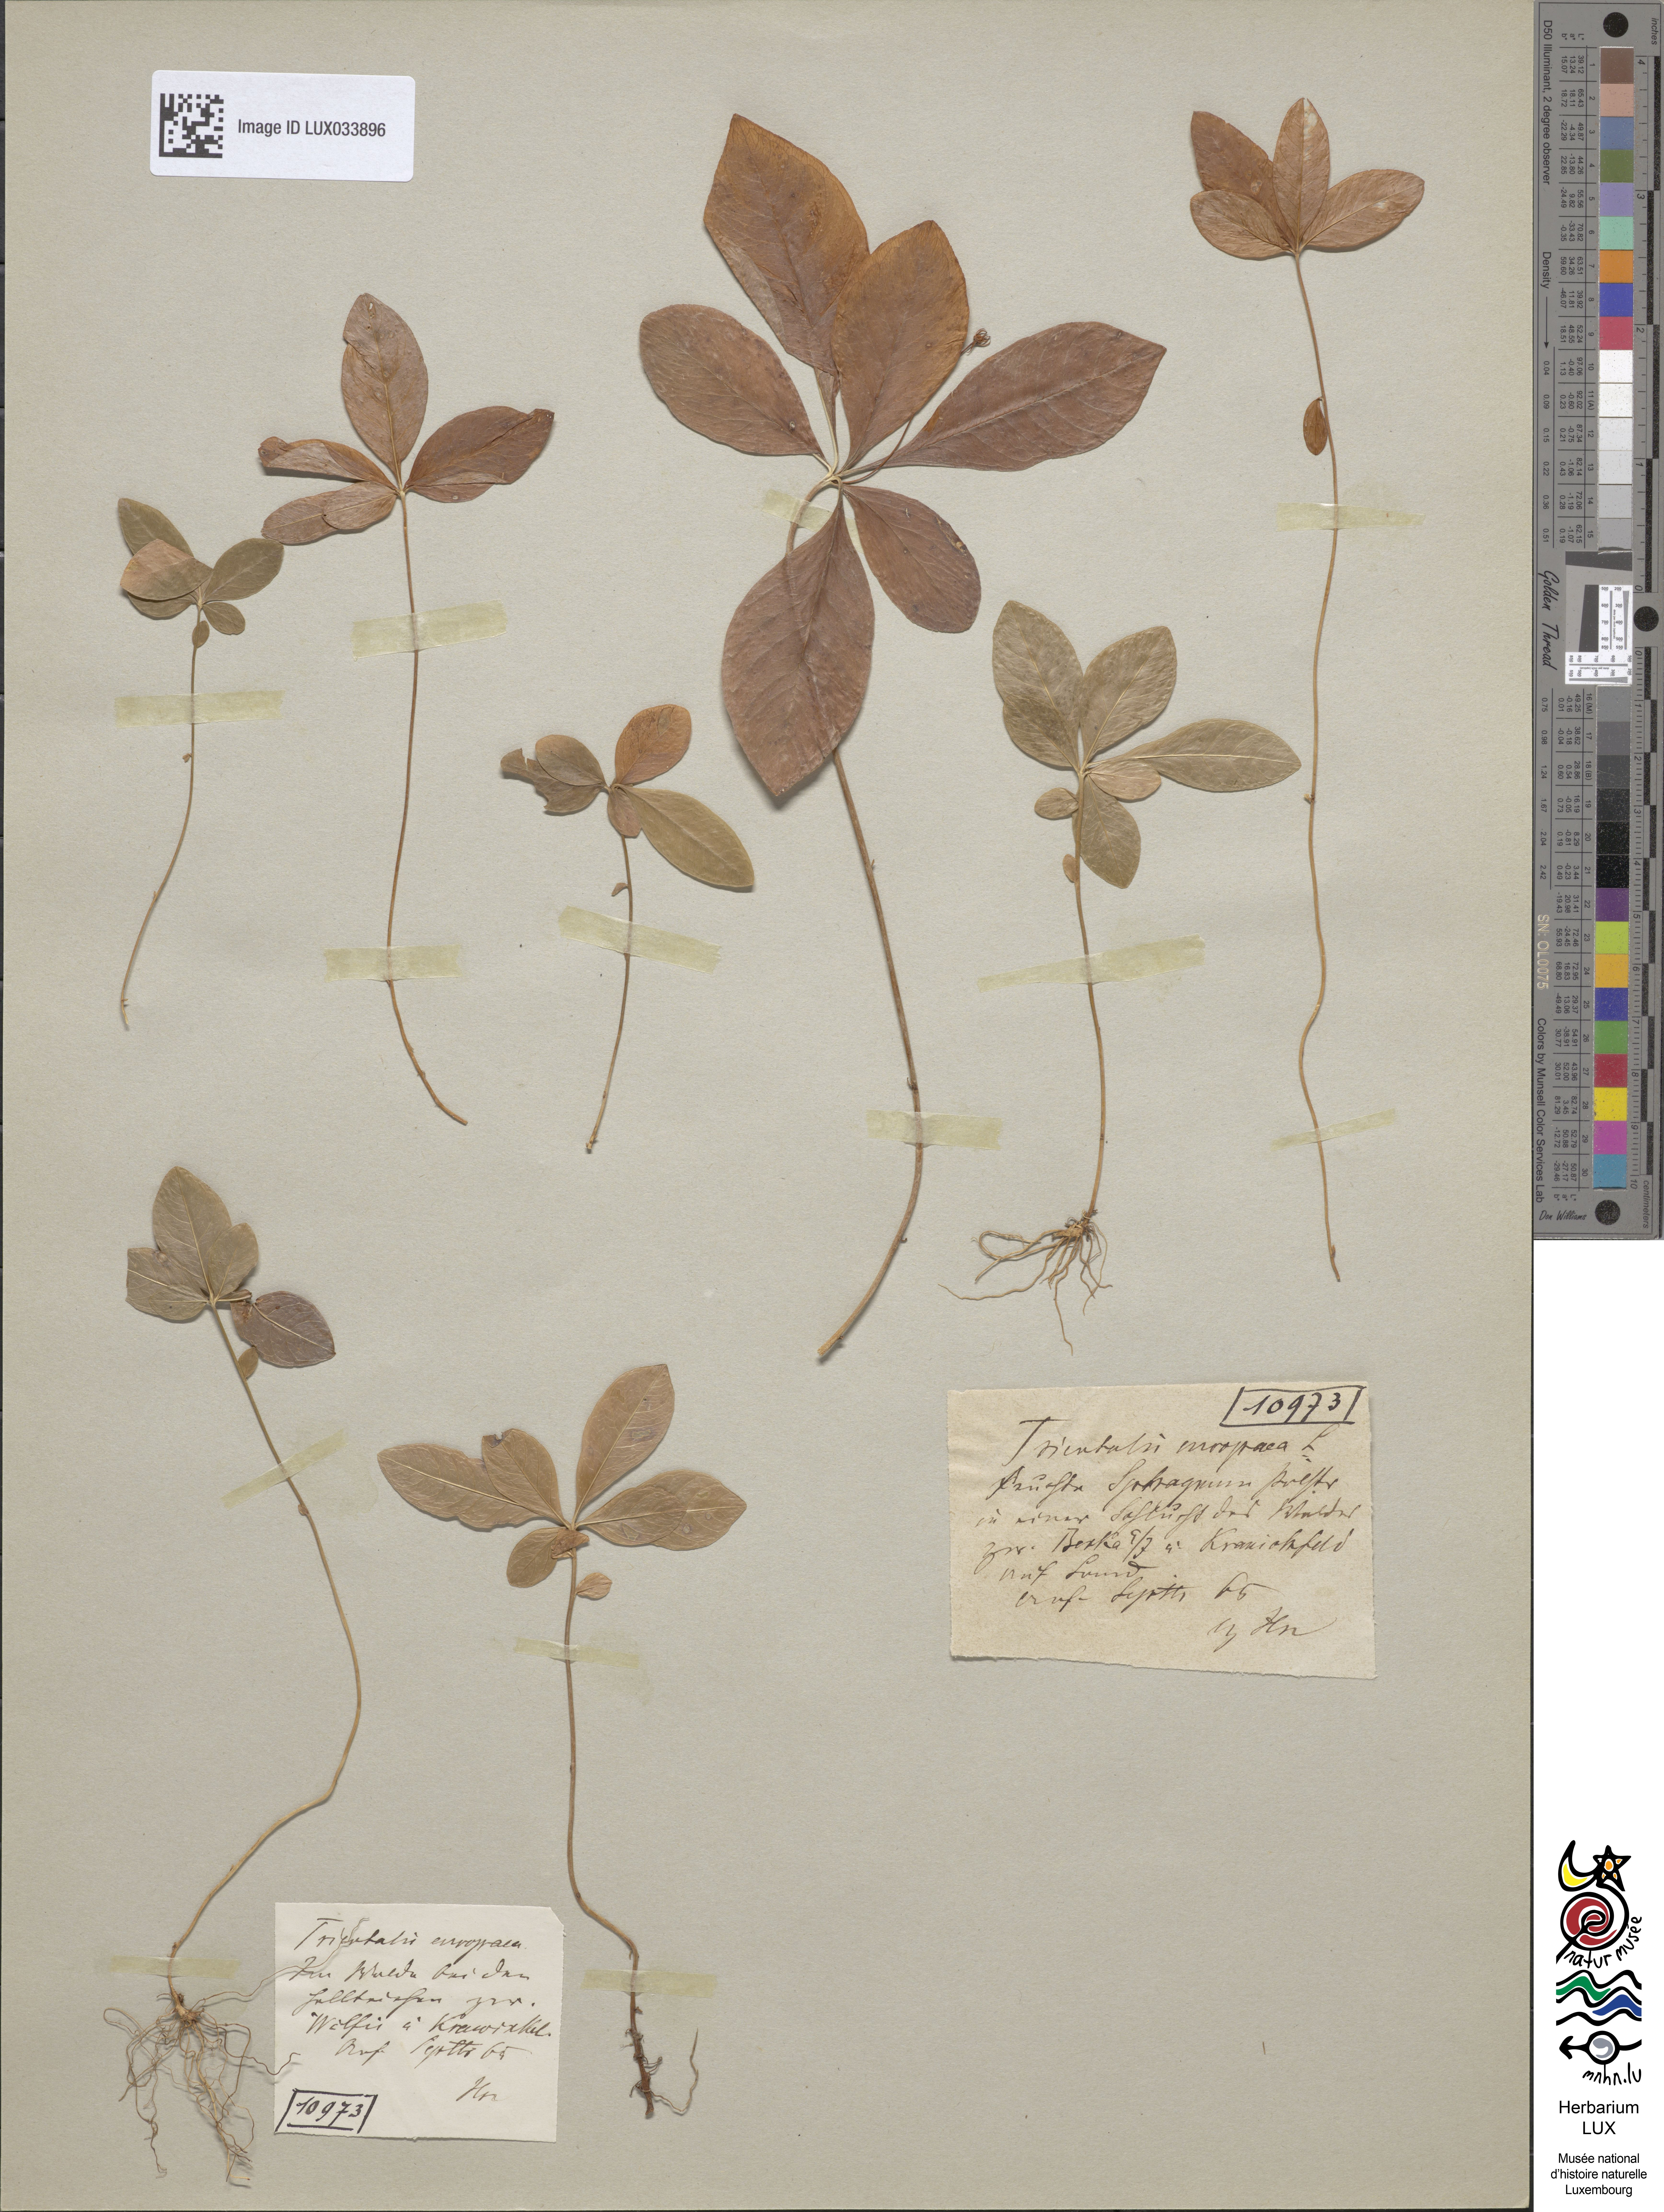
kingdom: Plantae
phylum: Tracheophyta
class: Magnoliopsida
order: Ericales
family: Primulaceae
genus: Lysimachia
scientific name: Lysimachia europaea
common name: Arctic starflower
